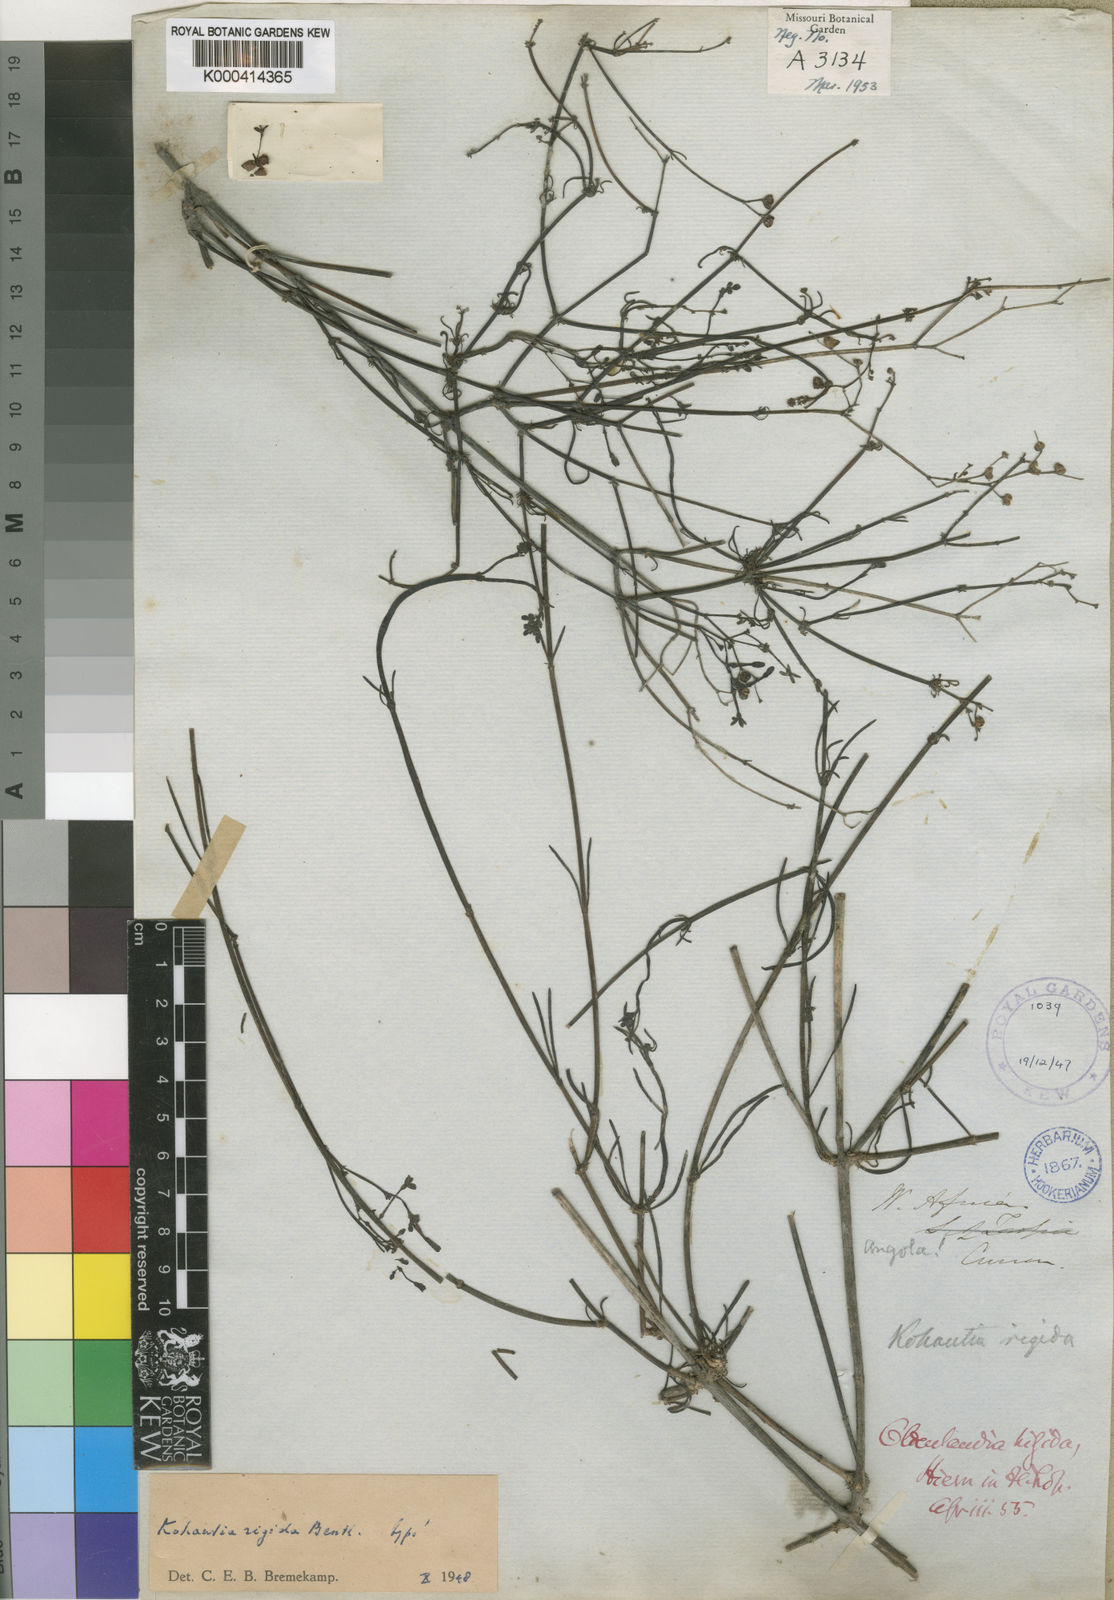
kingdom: Plantae
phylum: Tracheophyta
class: Magnoliopsida
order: Gentianales
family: Rubiaceae
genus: Kohautia
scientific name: Kohautia cynanchica
